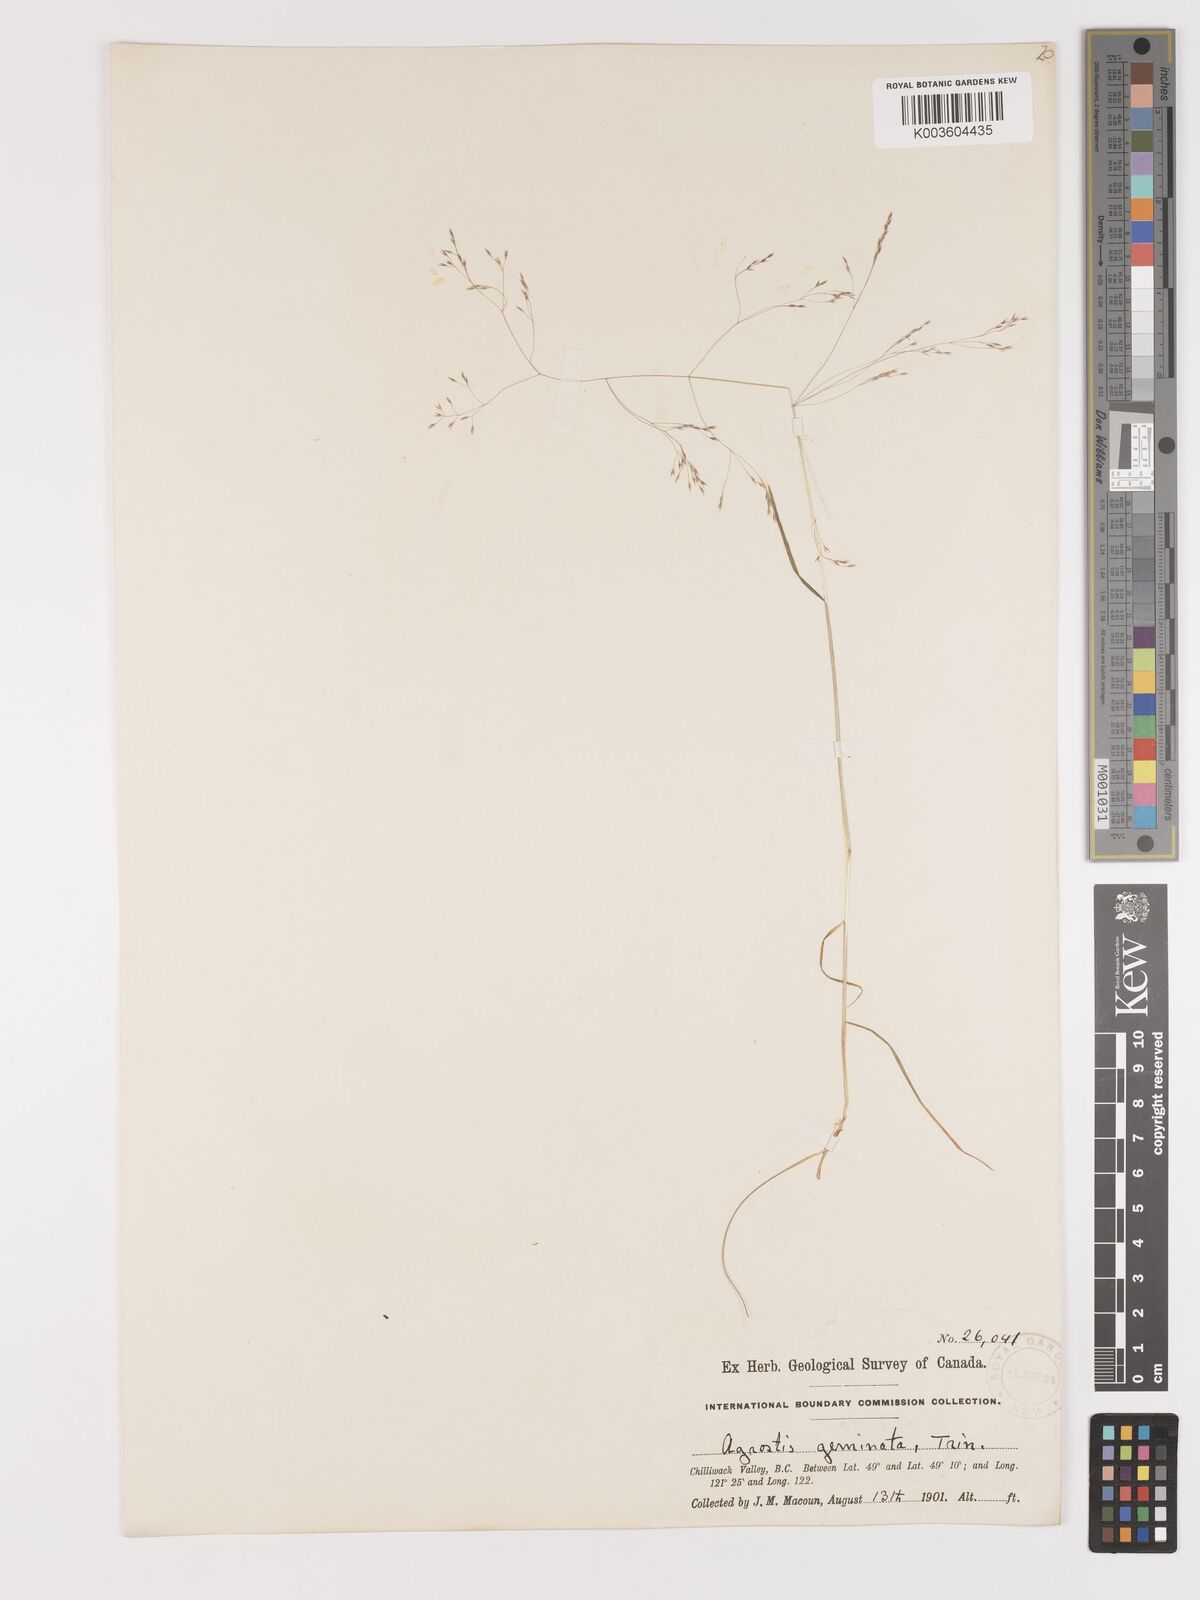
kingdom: Plantae
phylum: Tracheophyta
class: Liliopsida
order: Poales
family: Poaceae
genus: Agrostis
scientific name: Agrostis hyemalis
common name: Small bent
